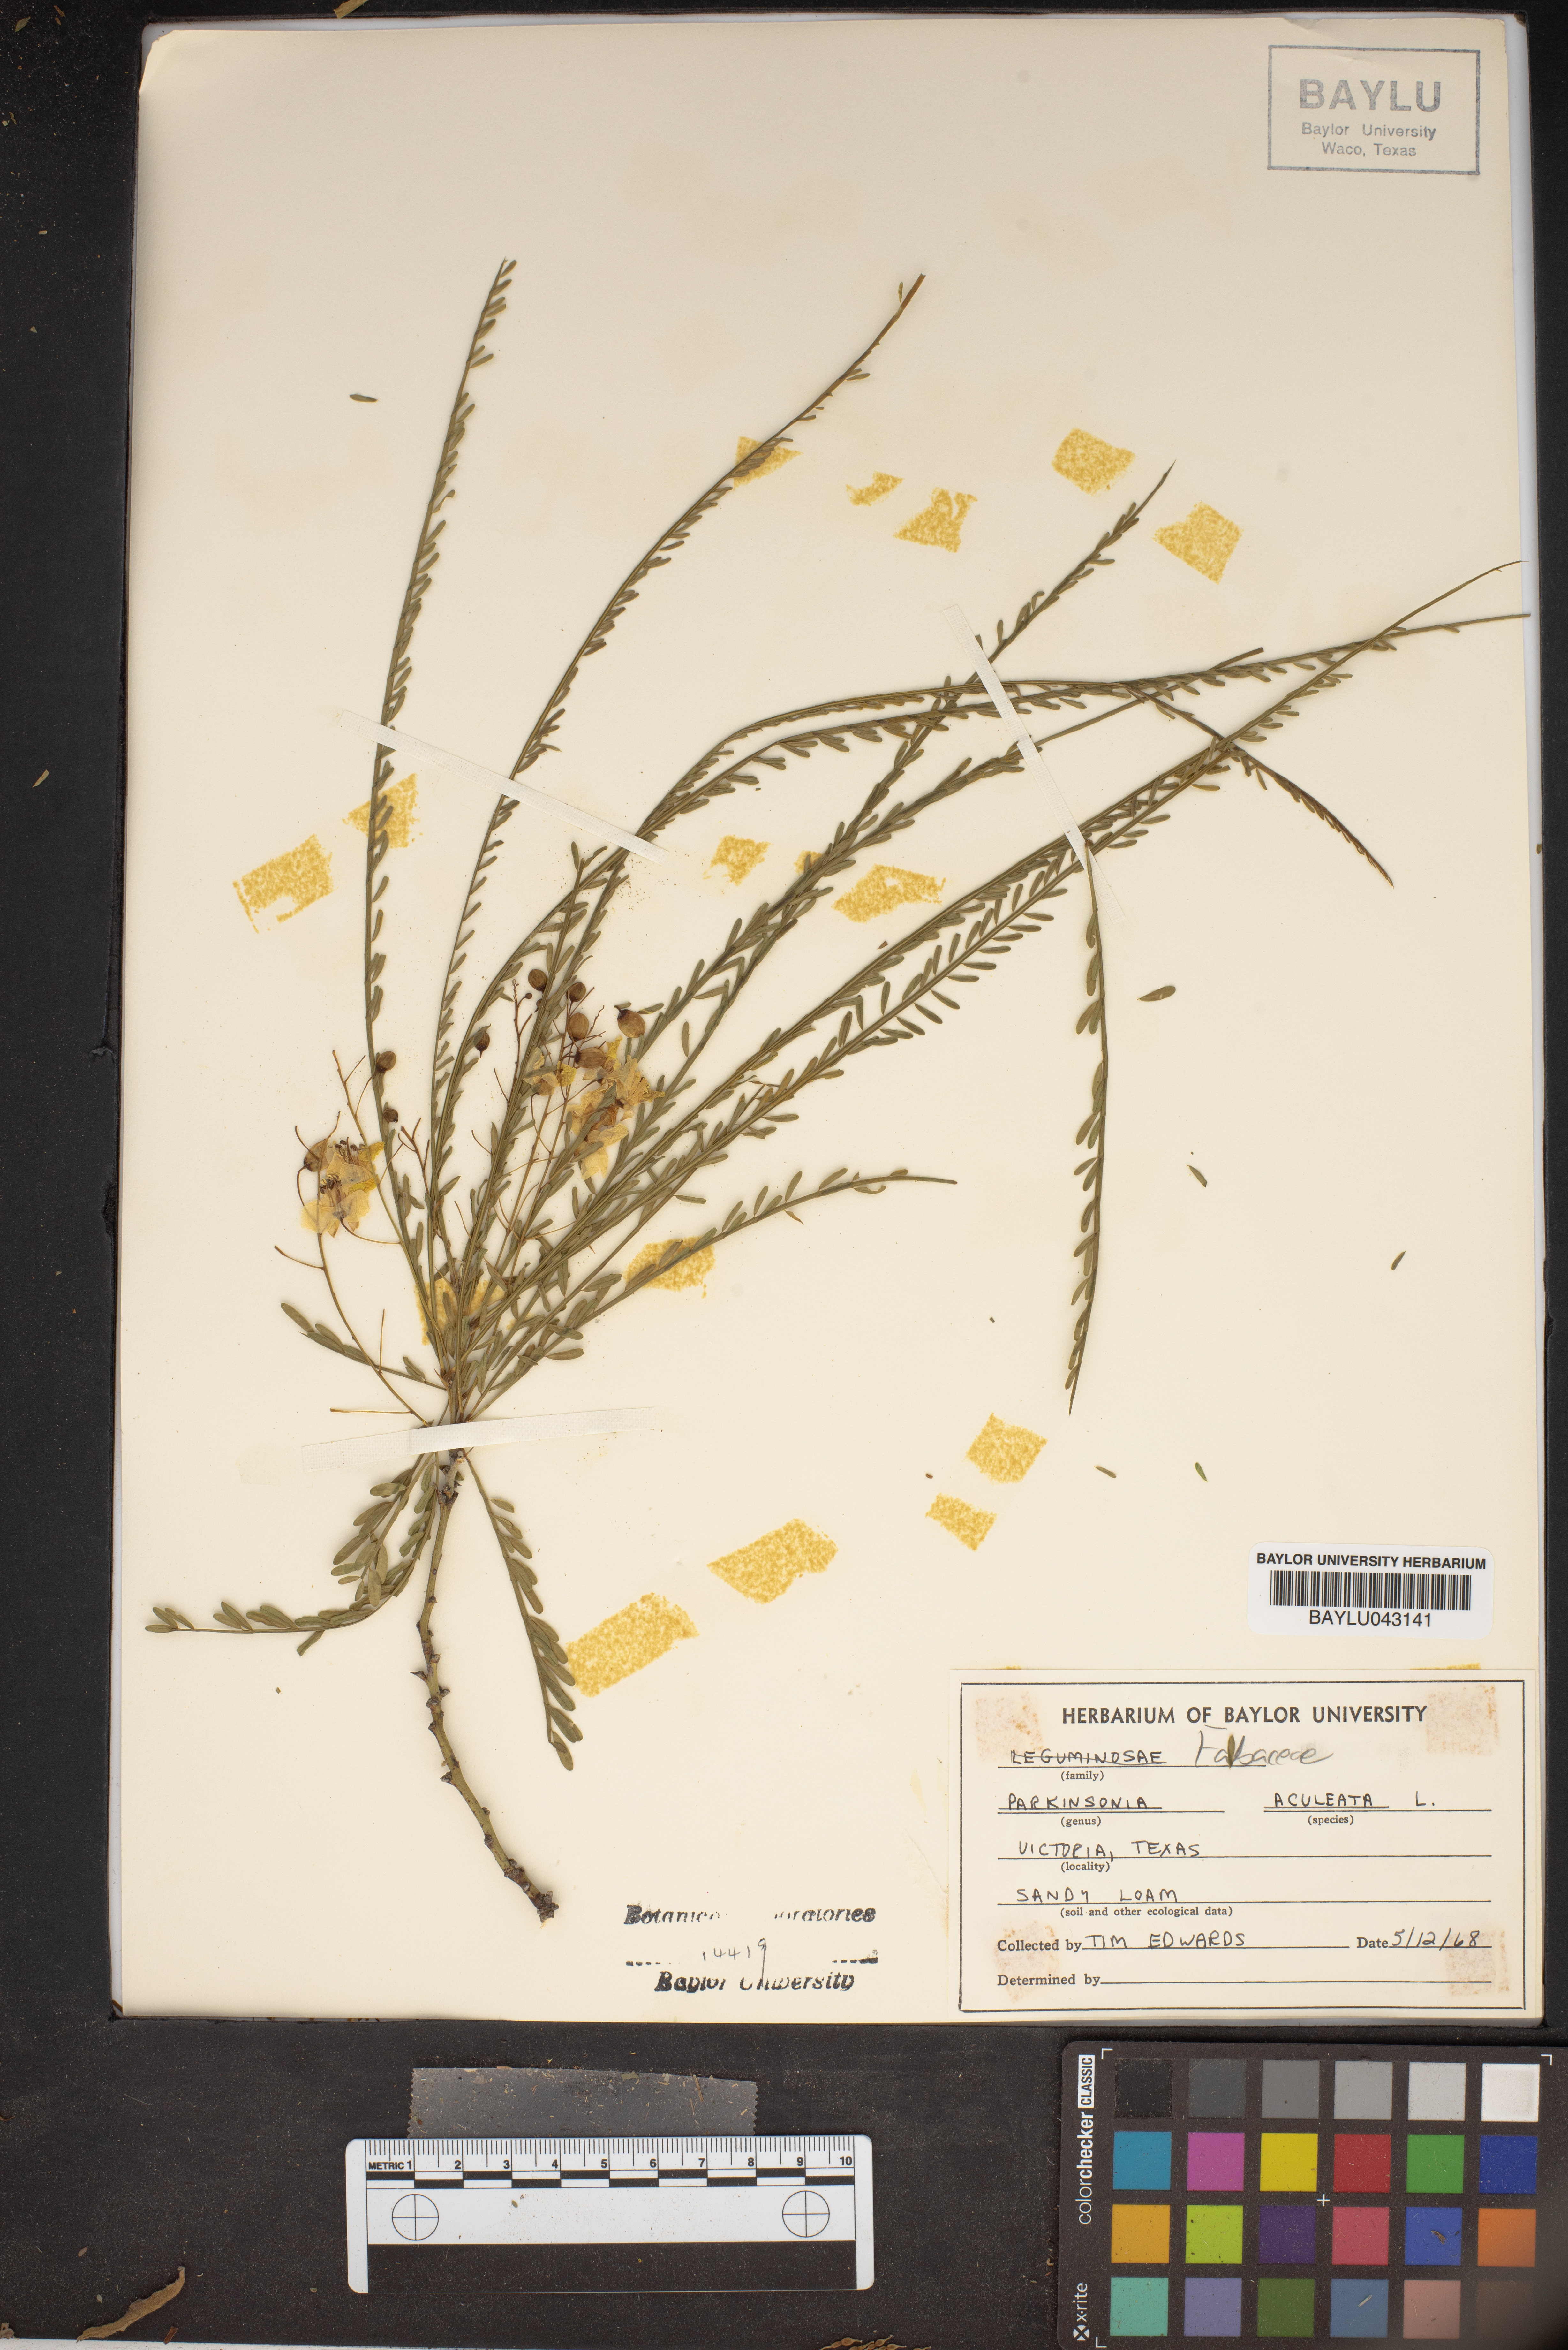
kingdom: Plantae
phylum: Tracheophyta
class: Magnoliopsida
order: Fabales
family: Fabaceae
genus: Parkinsonia
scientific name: Parkinsonia aculeata
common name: Jerusalem thorn
